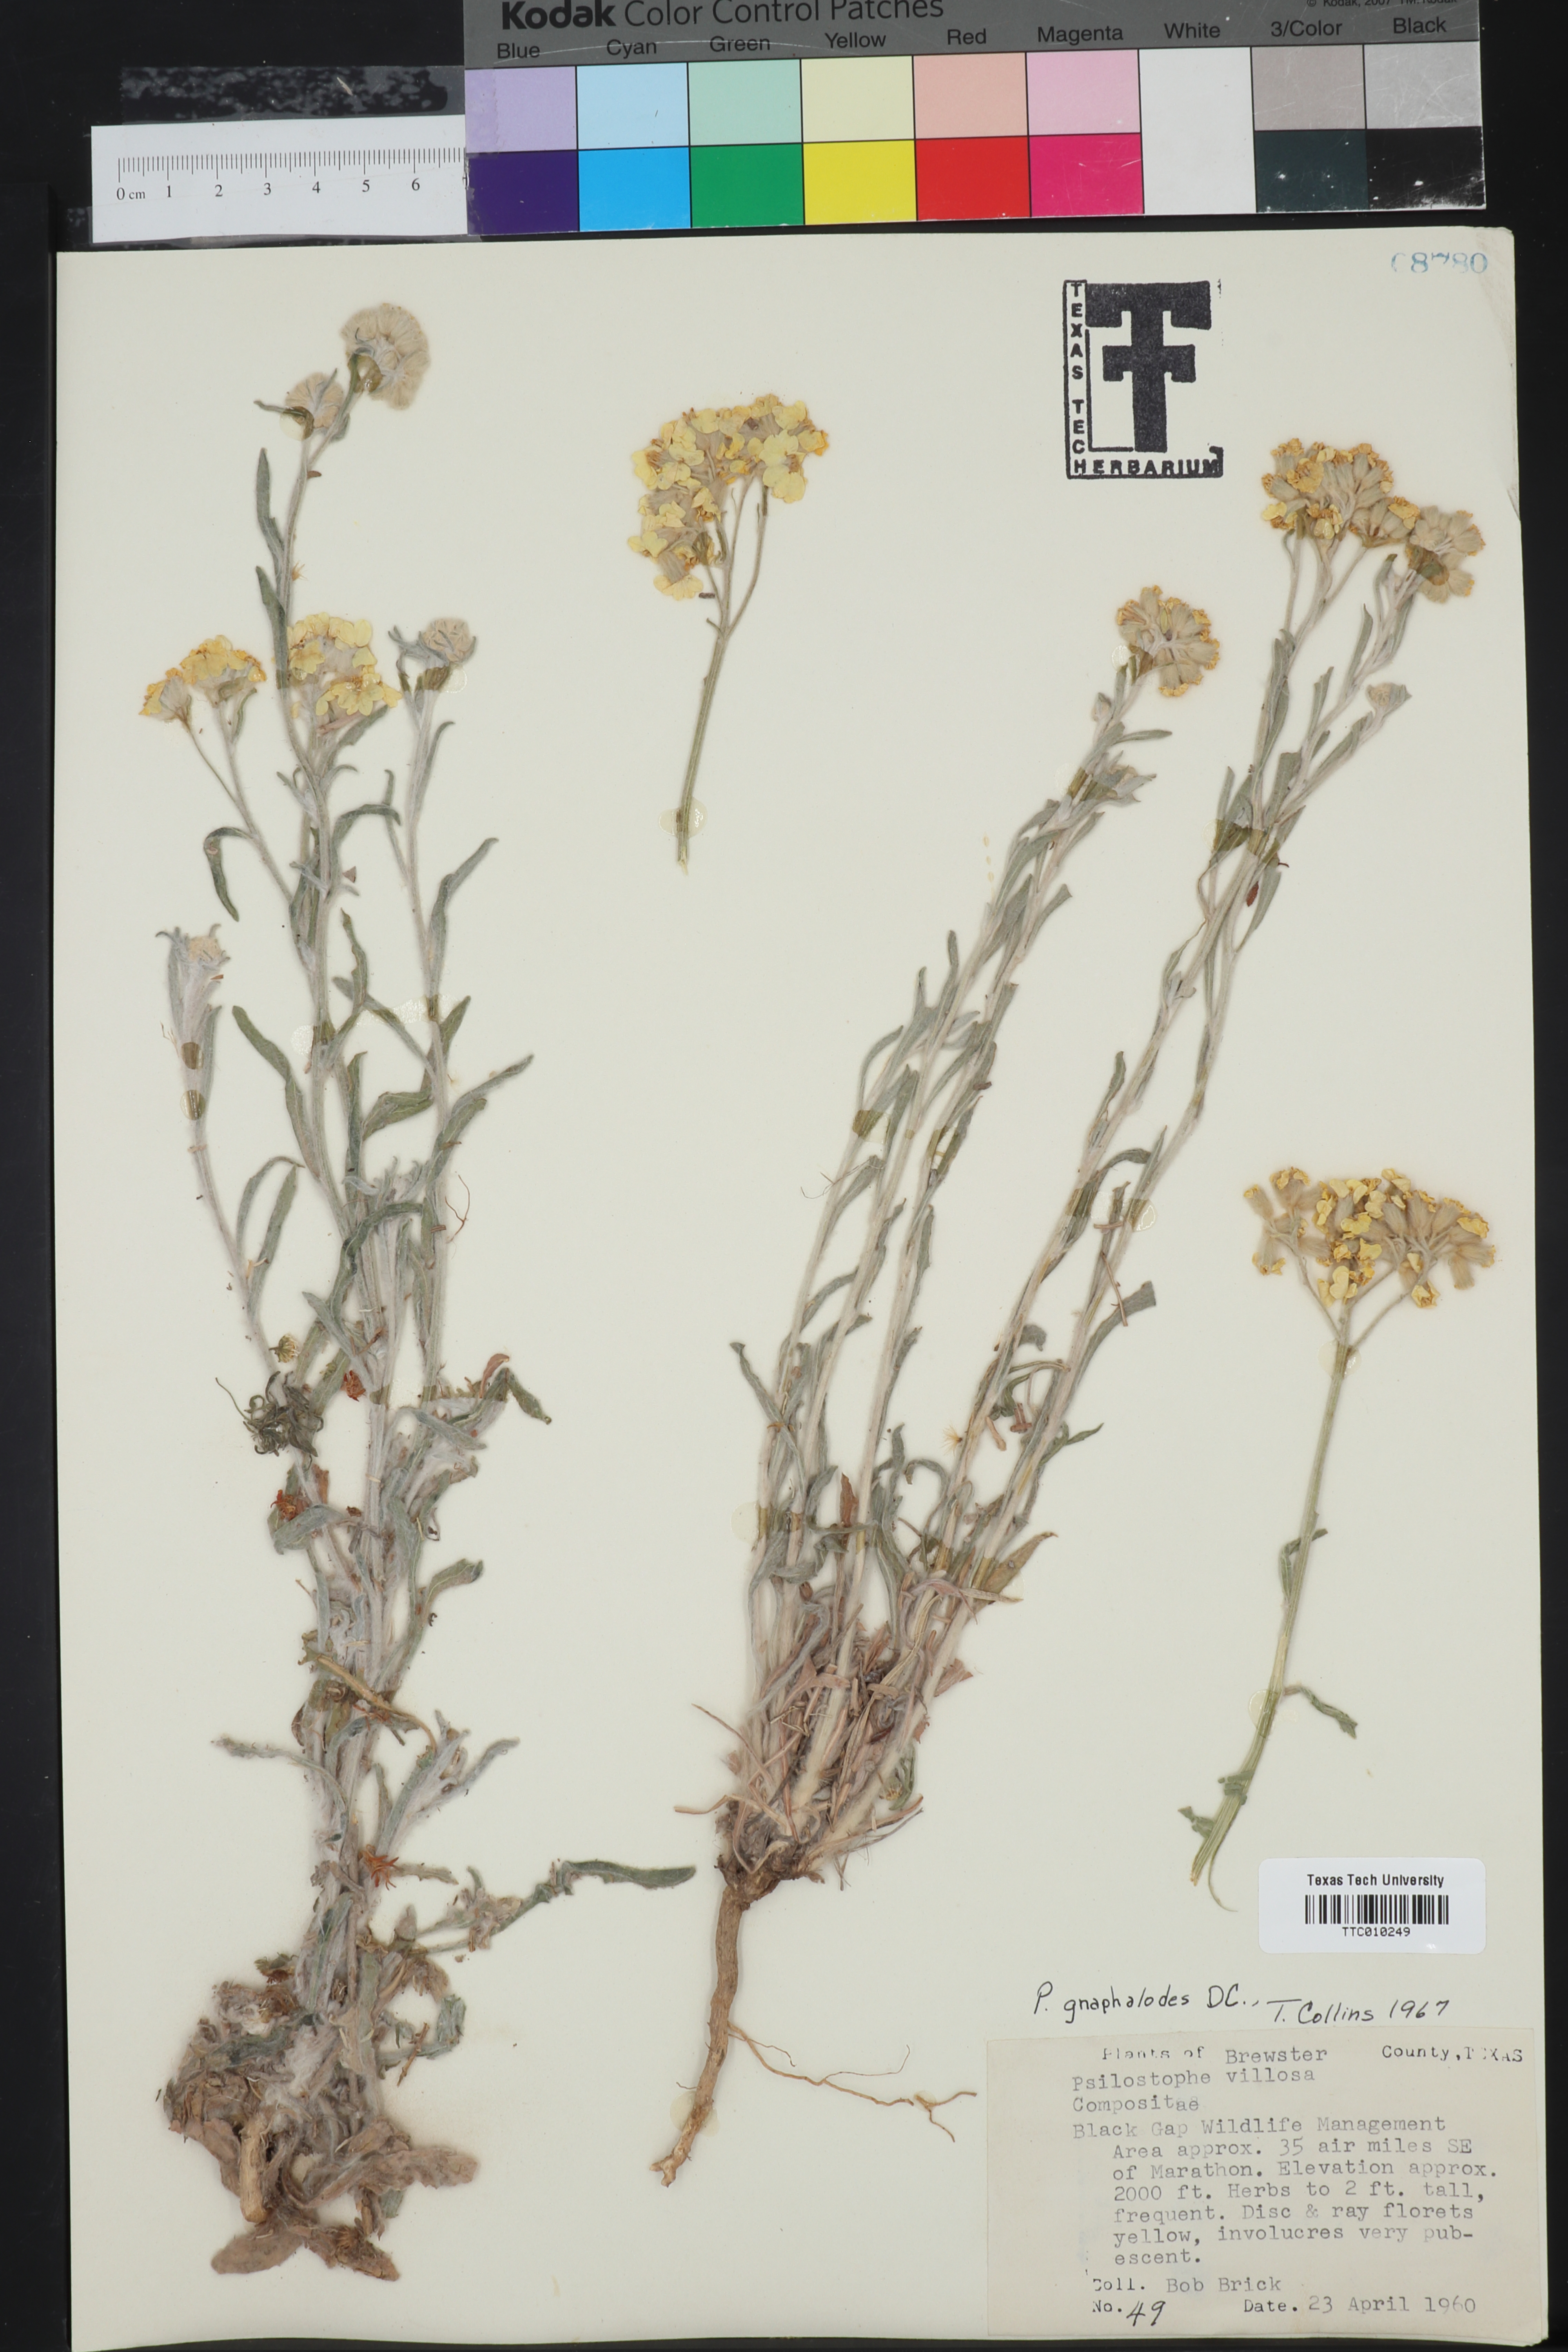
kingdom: Plantae
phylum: Tracheophyta
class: Magnoliopsida
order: Asterales
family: Asteraceae
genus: Psilostrophe
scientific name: Psilostrophe gnaphalioides
